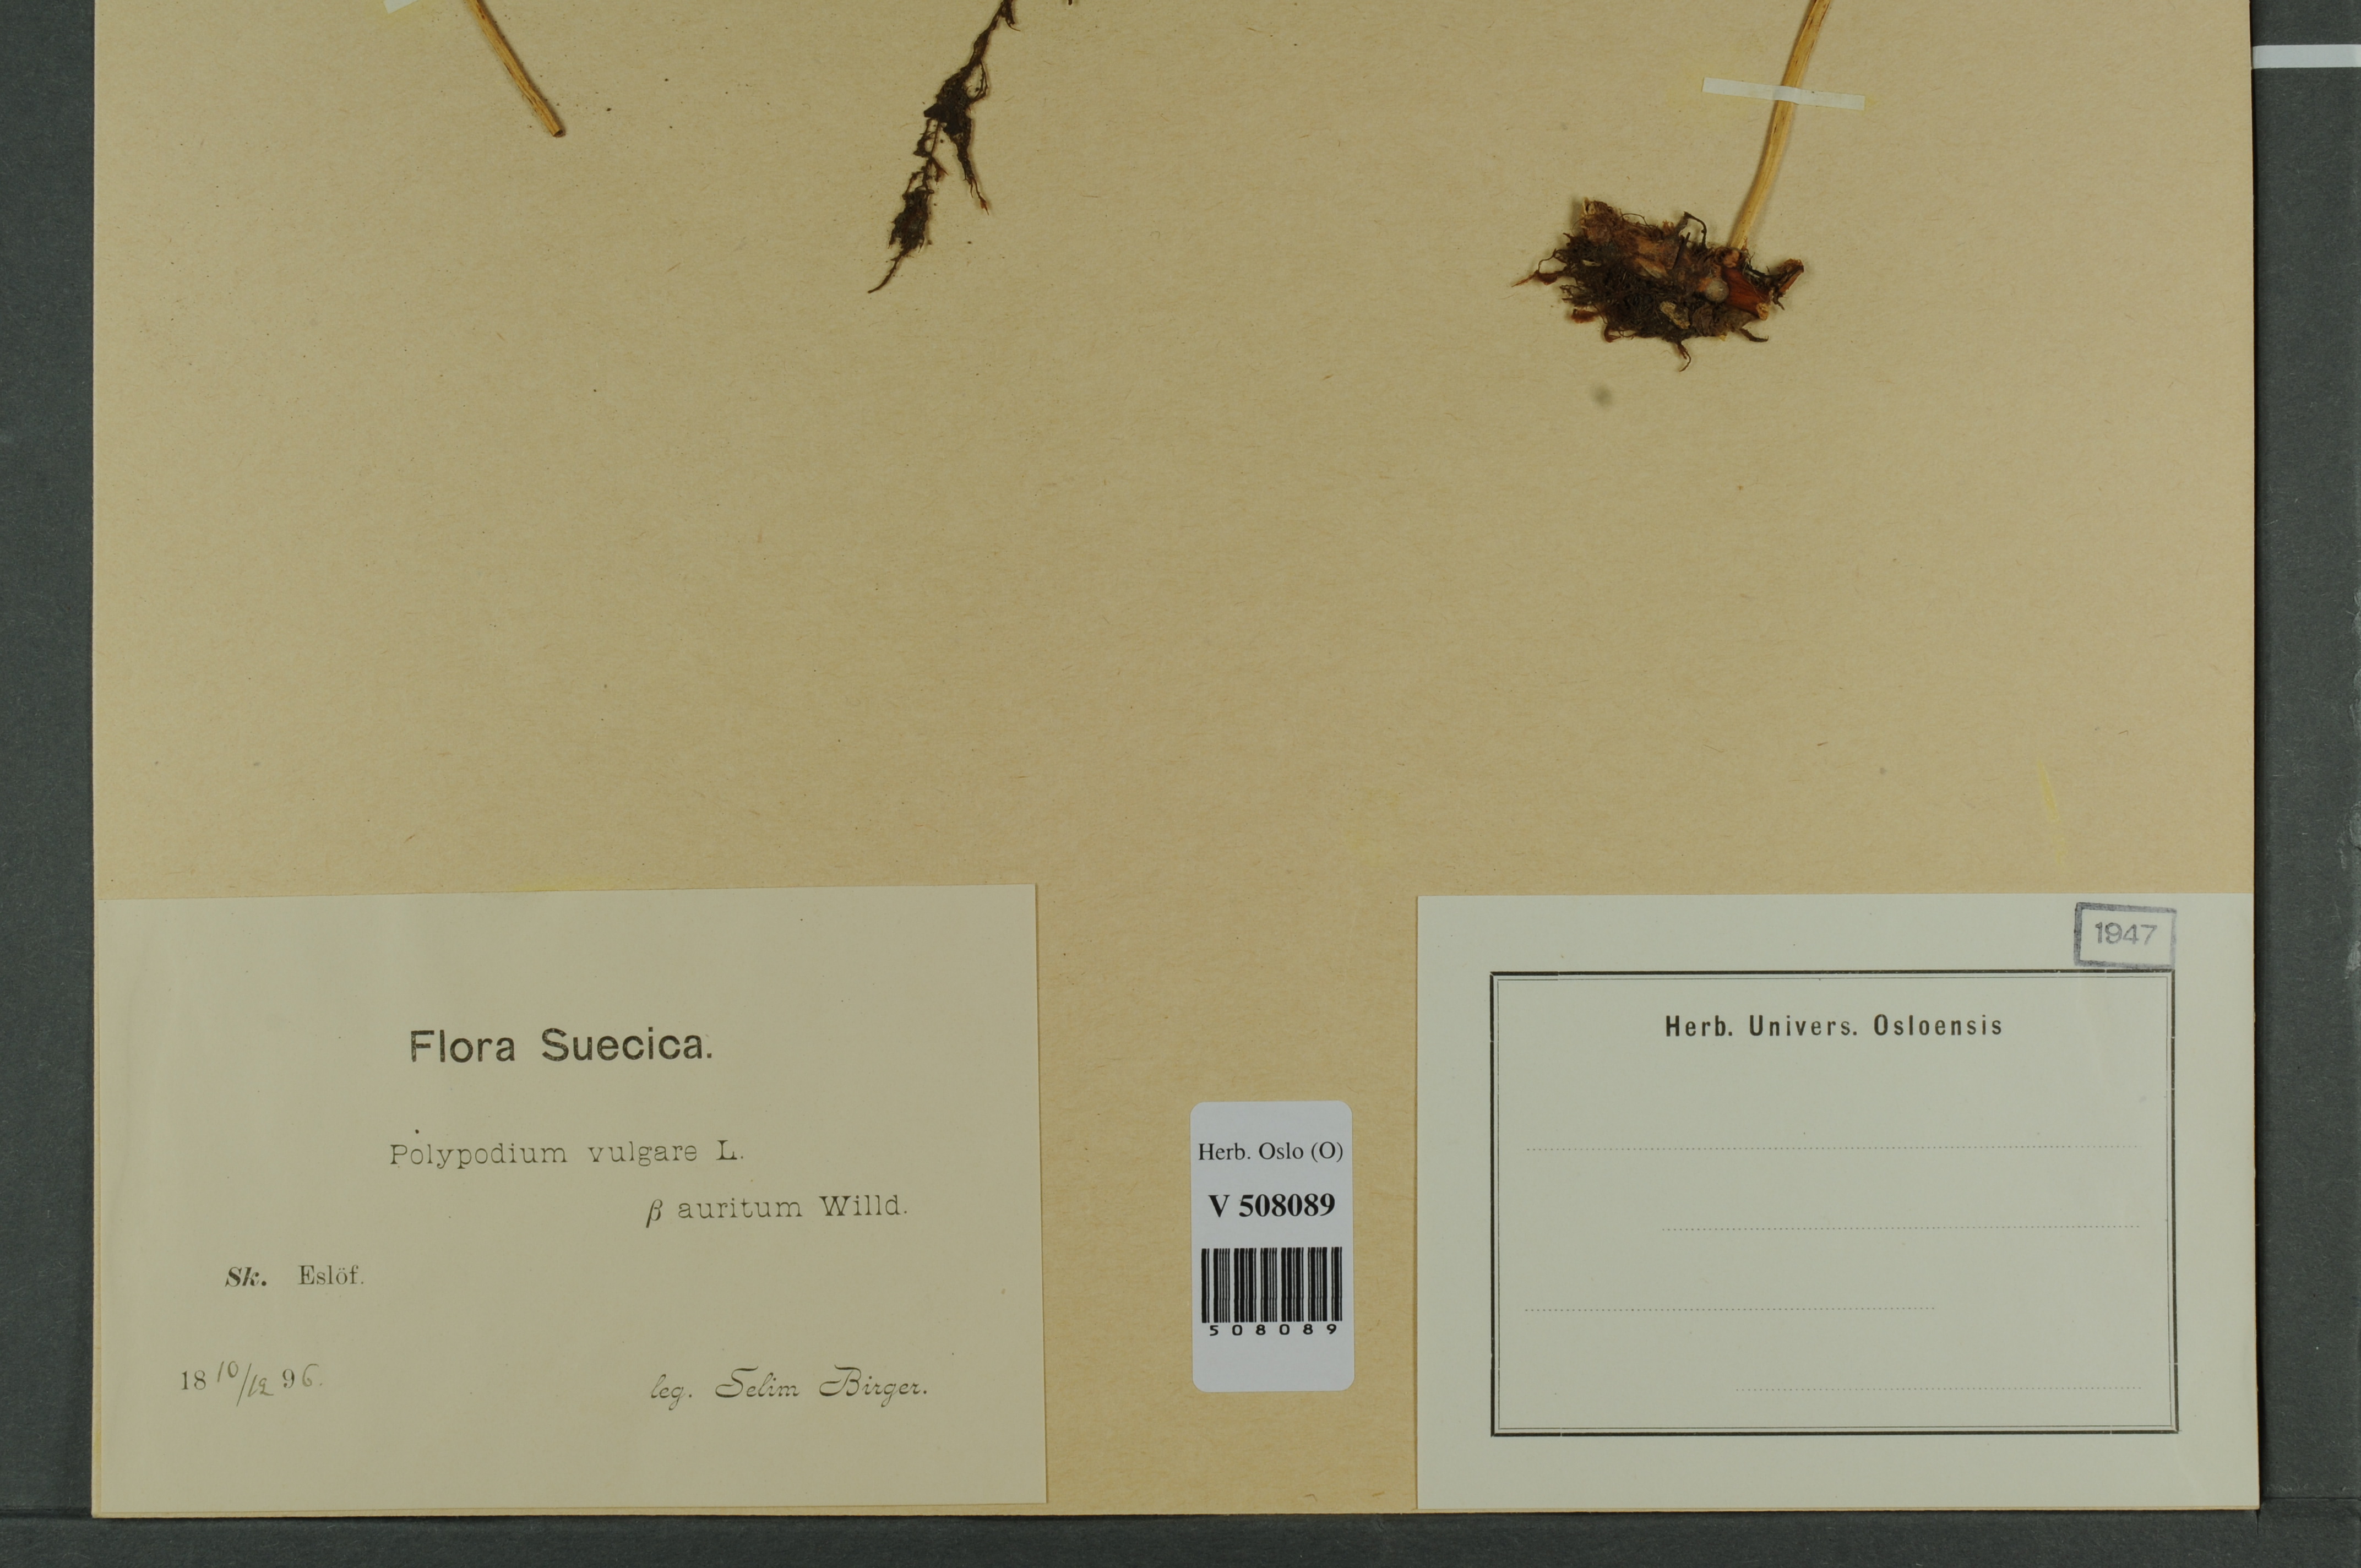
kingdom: Plantae
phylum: Tracheophyta
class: Polypodiopsida
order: Polypodiales
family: Polypodiaceae
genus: Polypodium
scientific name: Polypodium vulgare
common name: Common polypody
